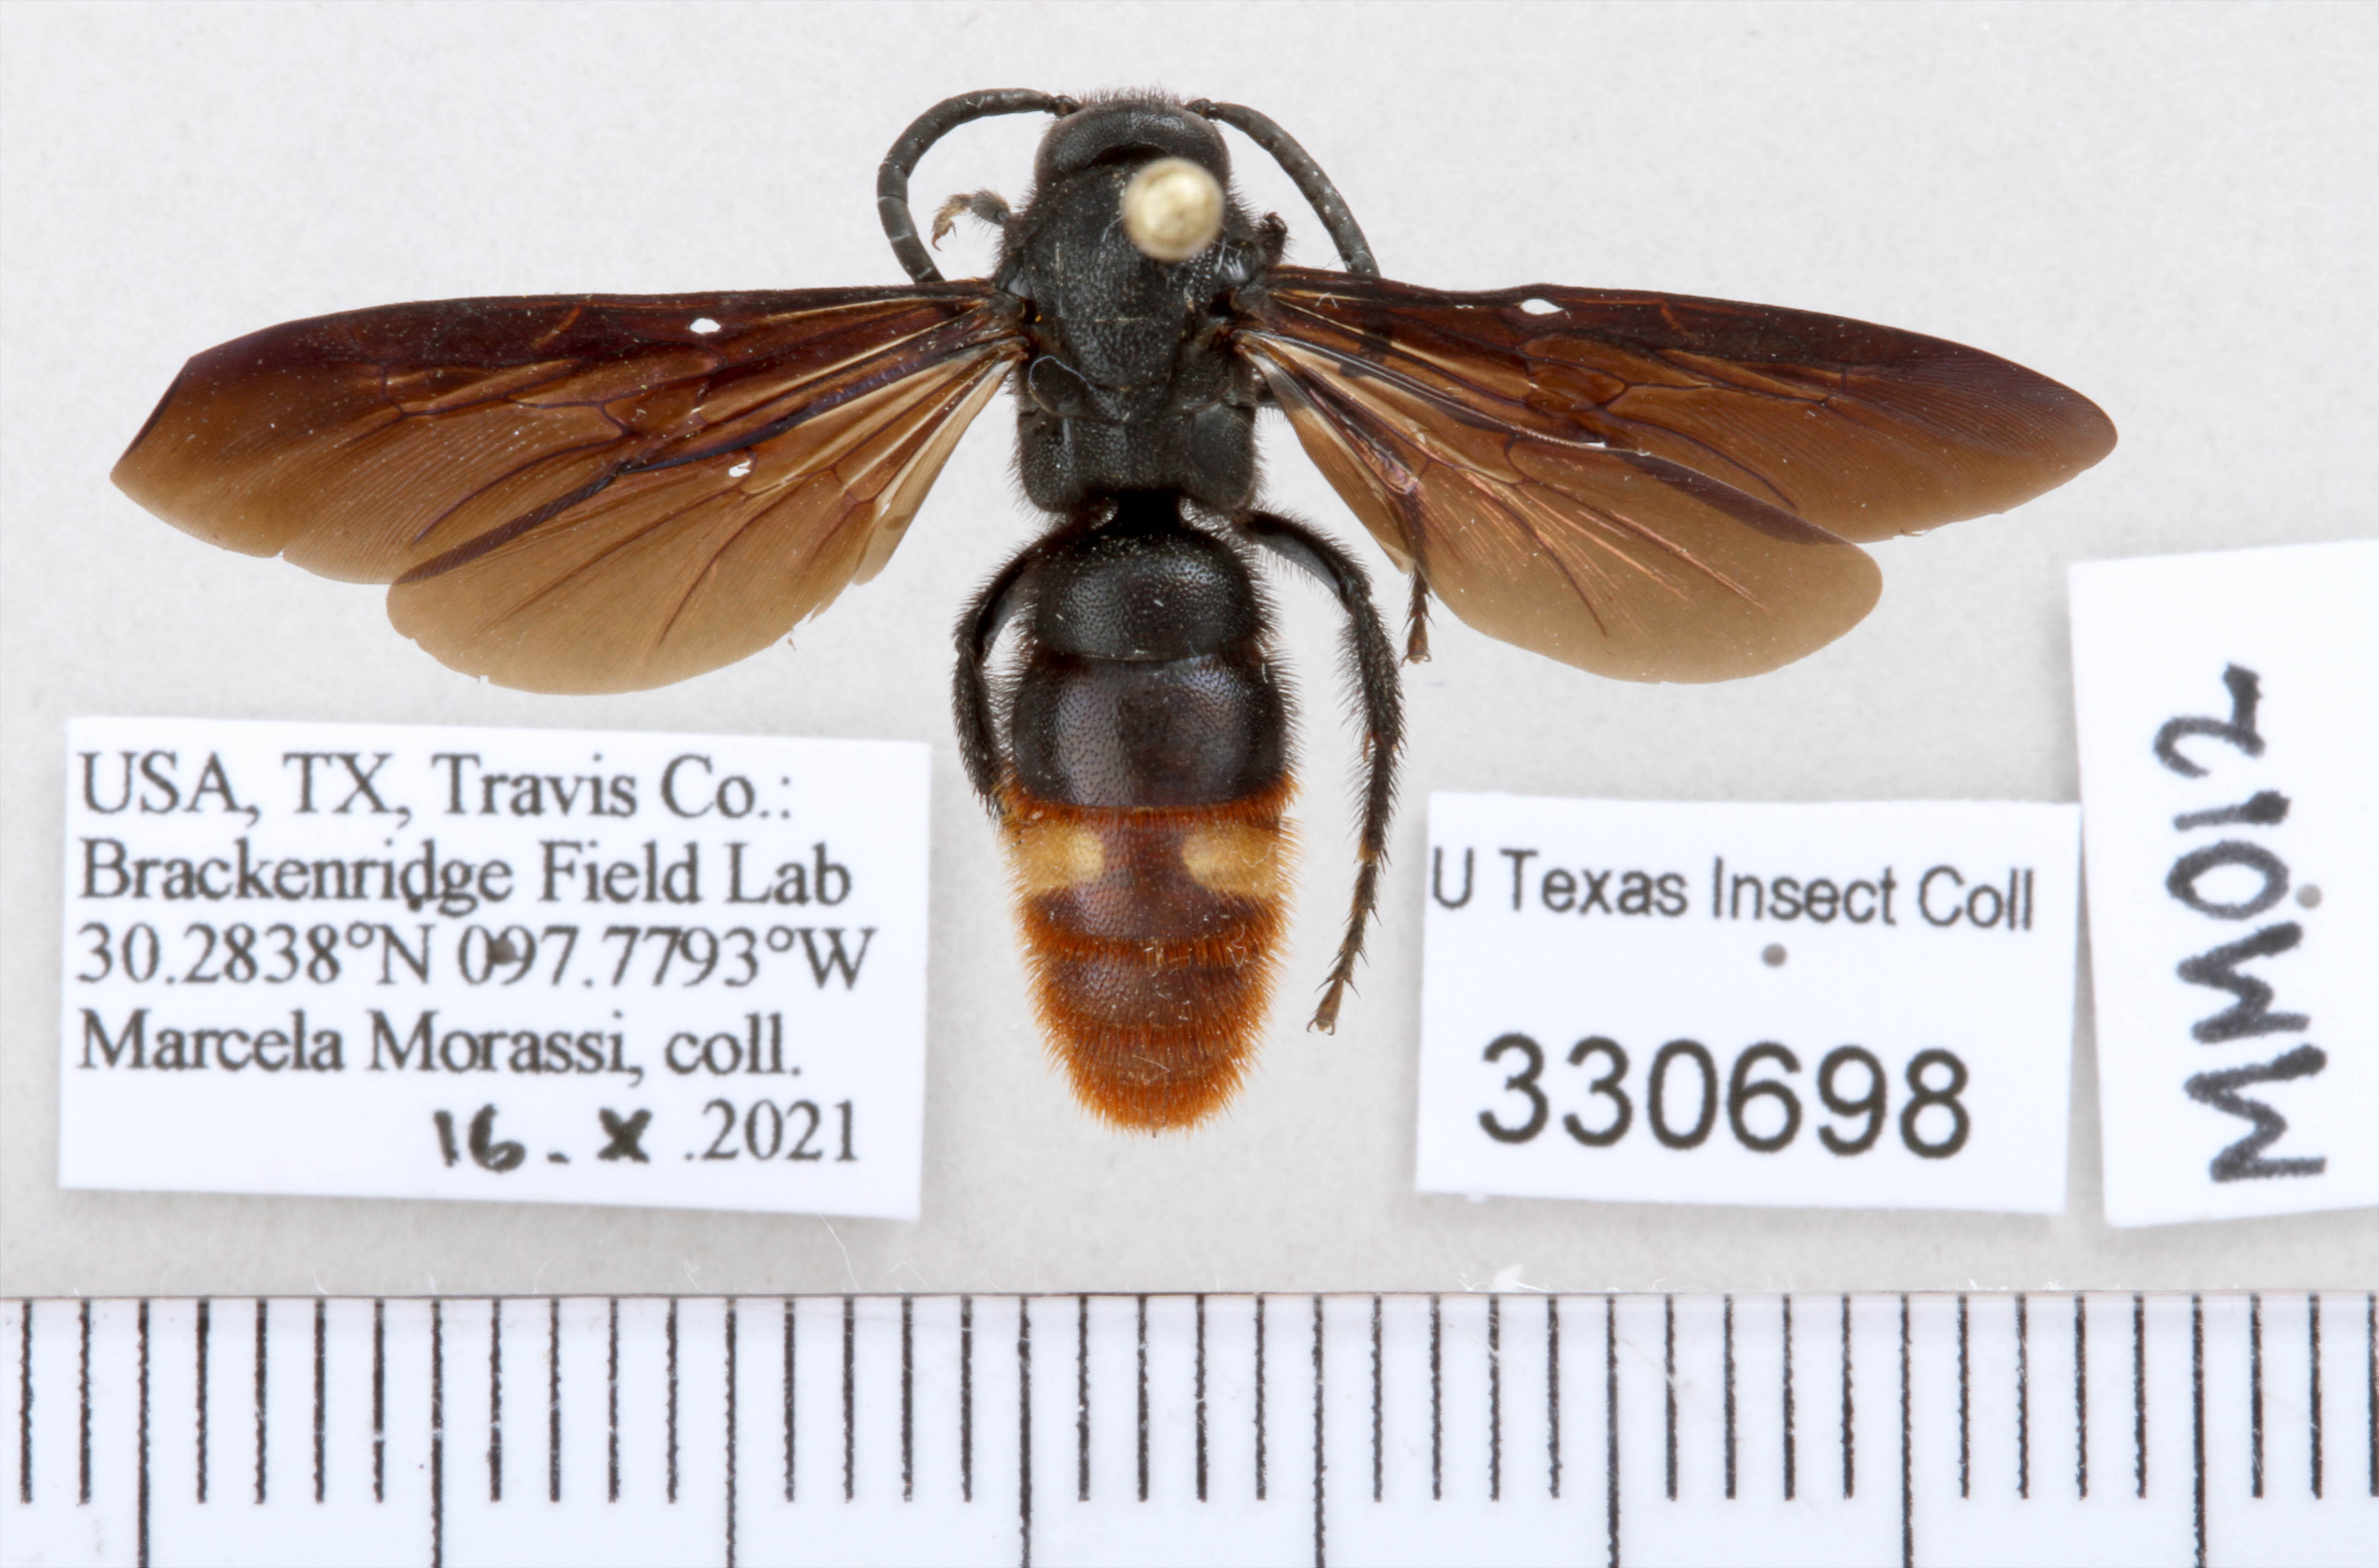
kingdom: Animalia
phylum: Arthropoda
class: Insecta
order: Hymenoptera
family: Scoliidae
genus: Scolia
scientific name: Scolia dubia
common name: Blue-winged scoliid wasp
